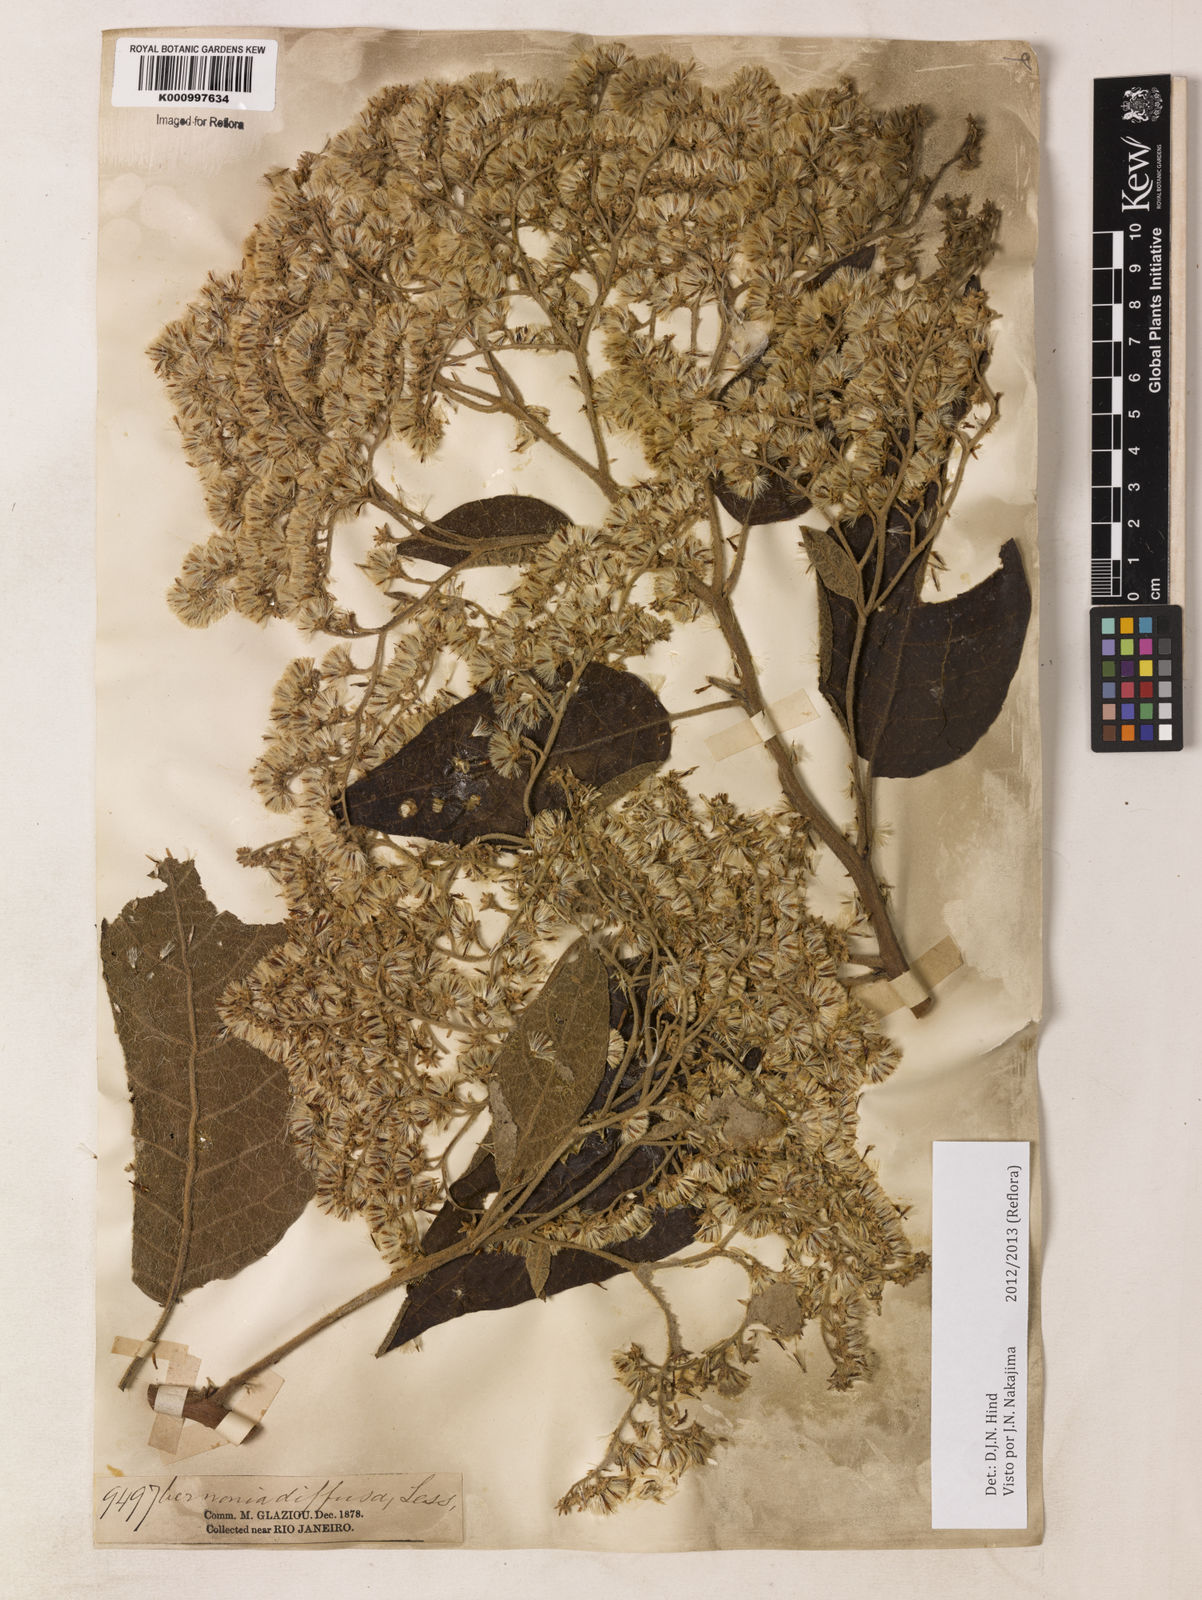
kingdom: Plantae
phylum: Tracheophyta
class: Magnoliopsida
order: Asterales
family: Asteraceae
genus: Vernonanthura
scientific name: Vernonanthura divaricata
